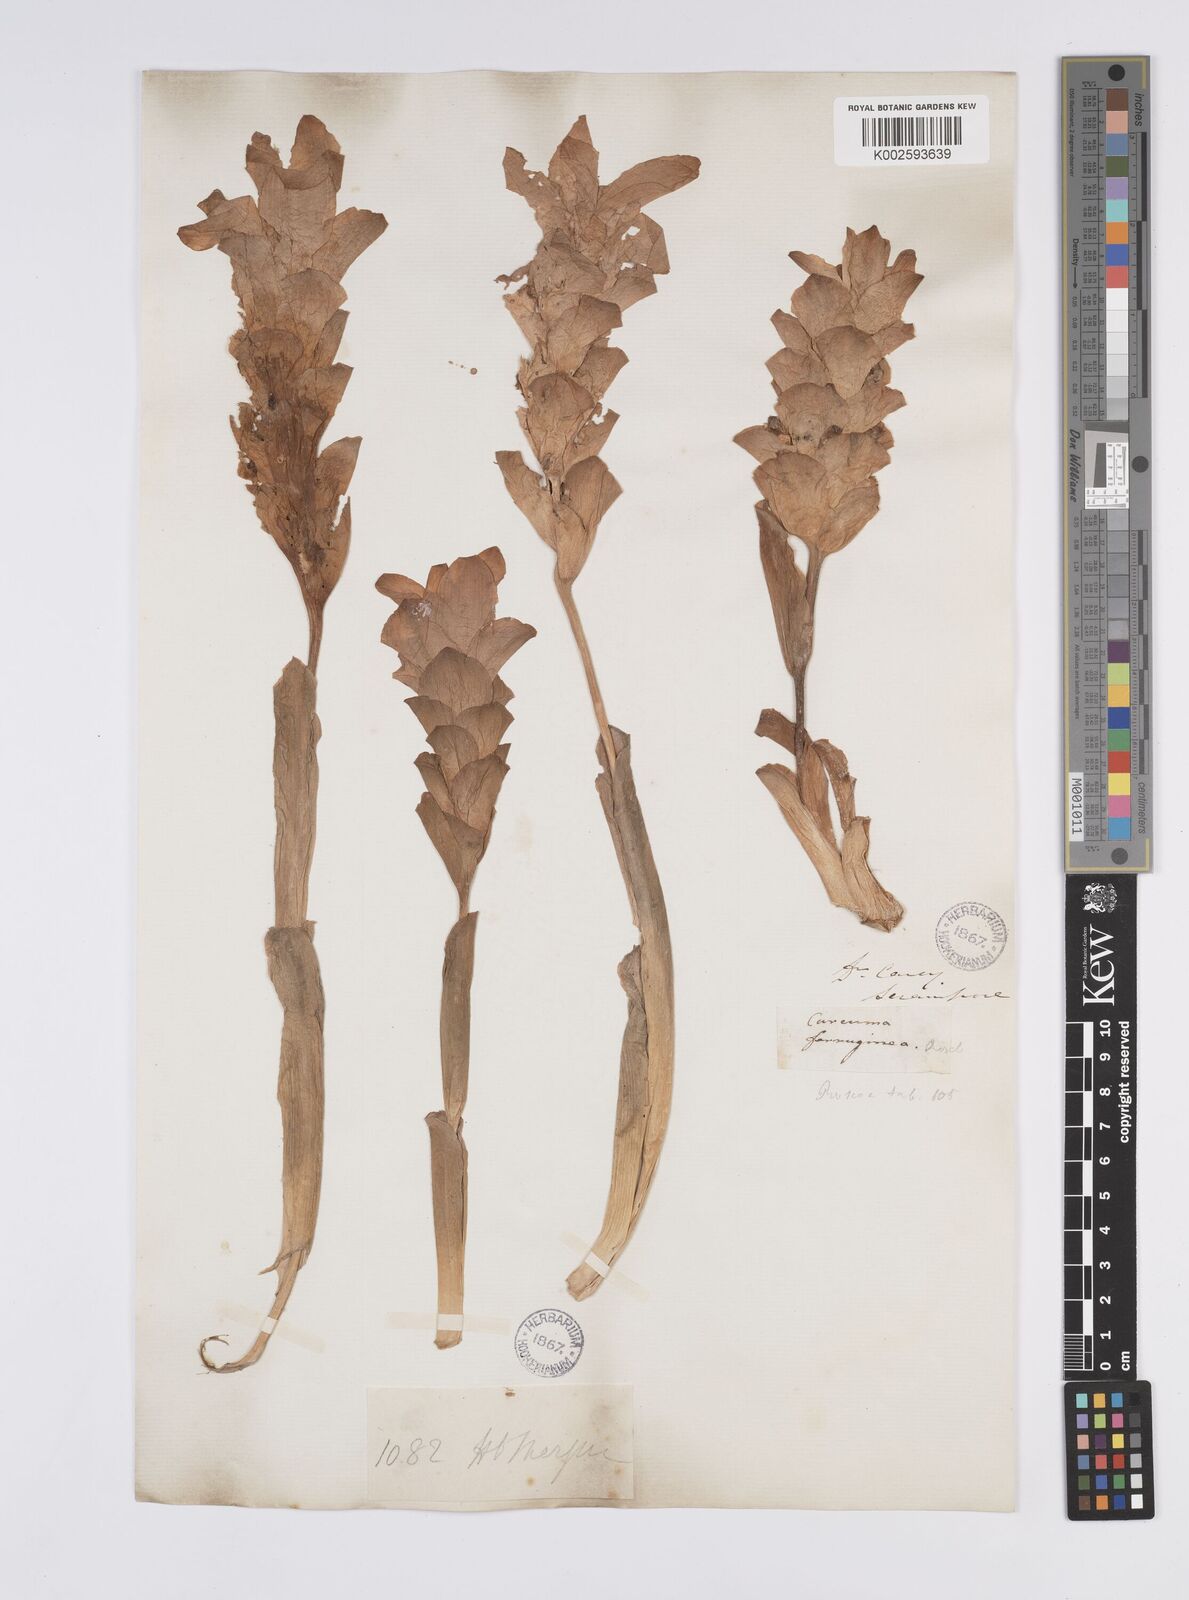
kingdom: Plantae
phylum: Tracheophyta
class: Liliopsida
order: Zingiberales
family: Zingiberaceae
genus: Curcuma
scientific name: Curcuma ferruginea
